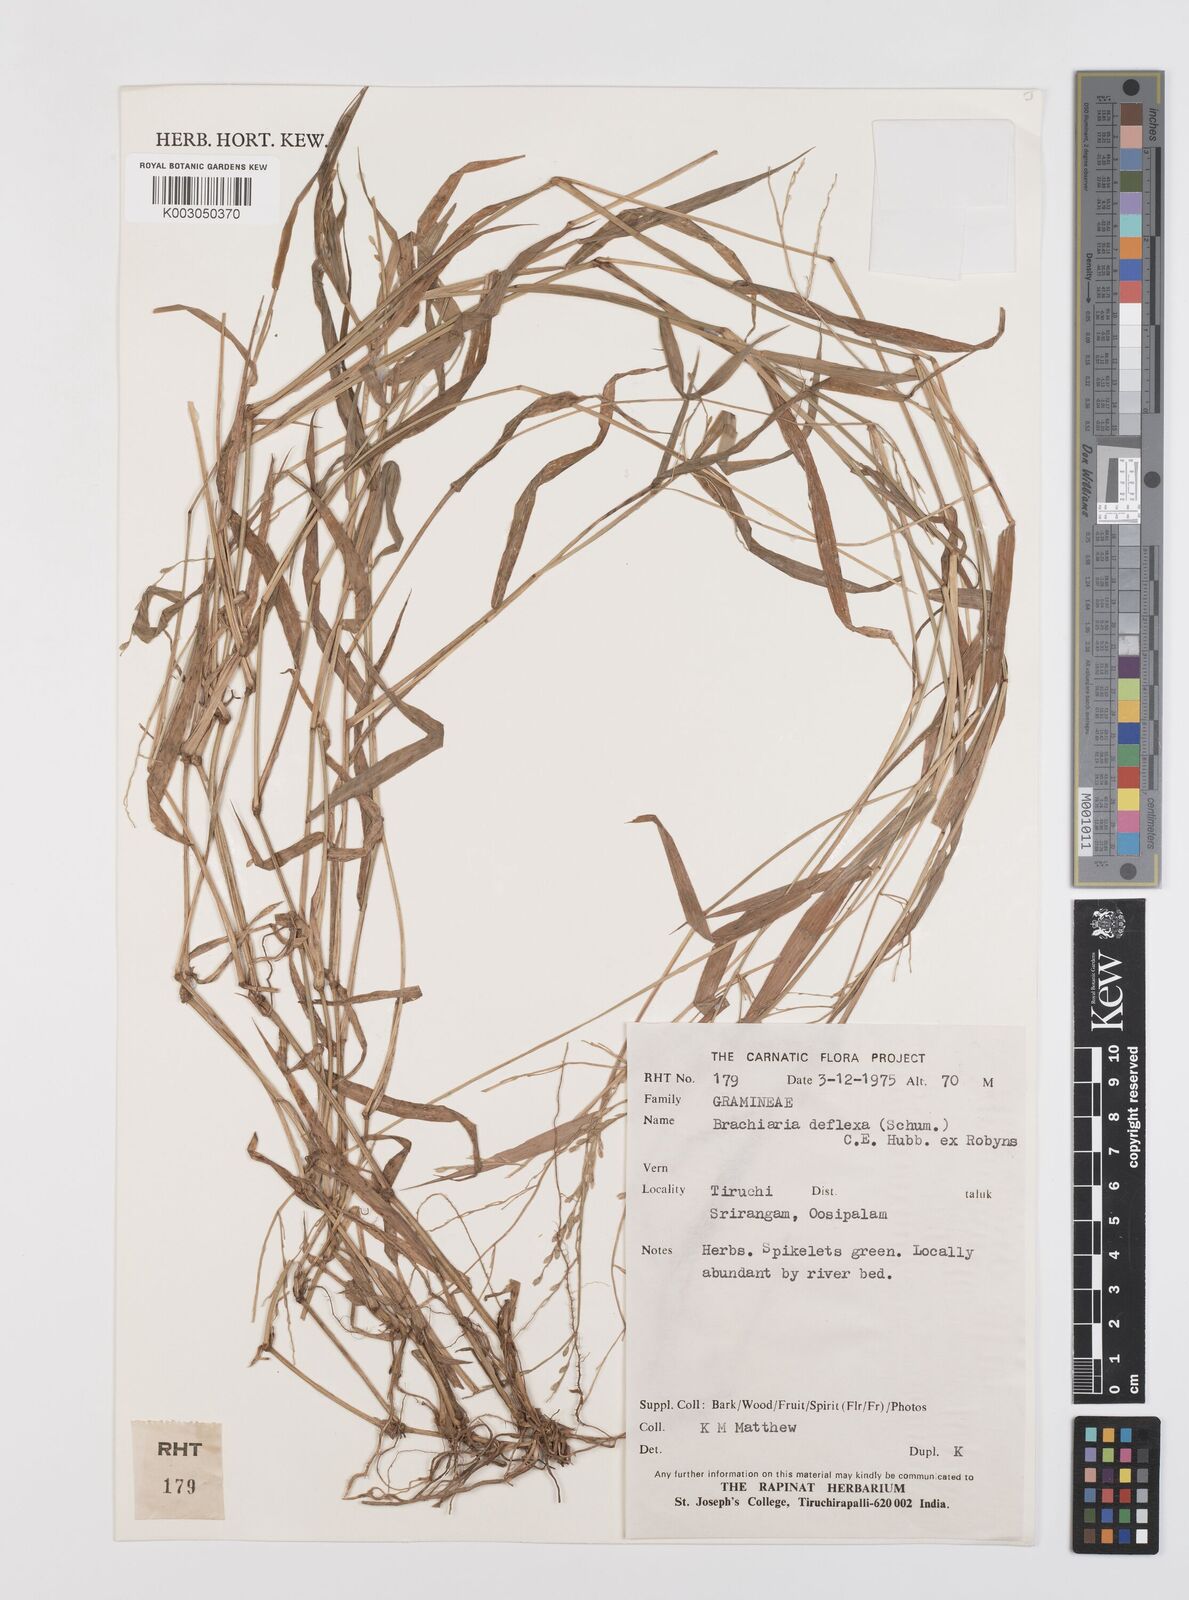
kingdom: Plantae
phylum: Tracheophyta
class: Liliopsida
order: Poales
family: Poaceae
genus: Urochloa
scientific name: Urochloa deflexa
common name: Guinea millet
